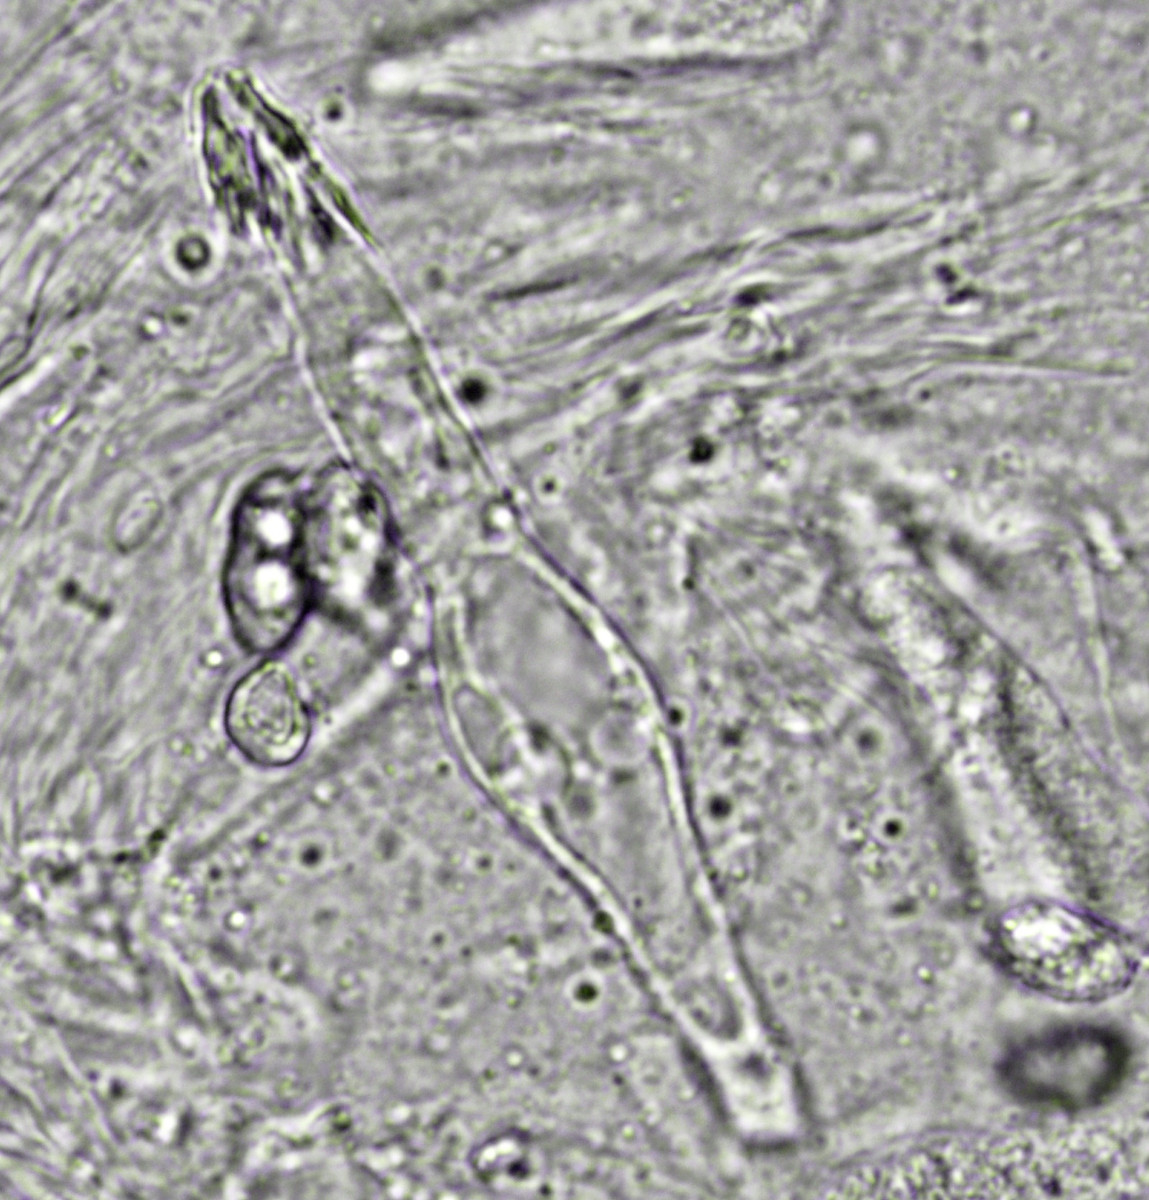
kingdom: Fungi
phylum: Basidiomycota
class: Agaricomycetes
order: Agaricales
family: Tricholomataceae
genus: Melanoleuca
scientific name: Melanoleuca
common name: munkehat
